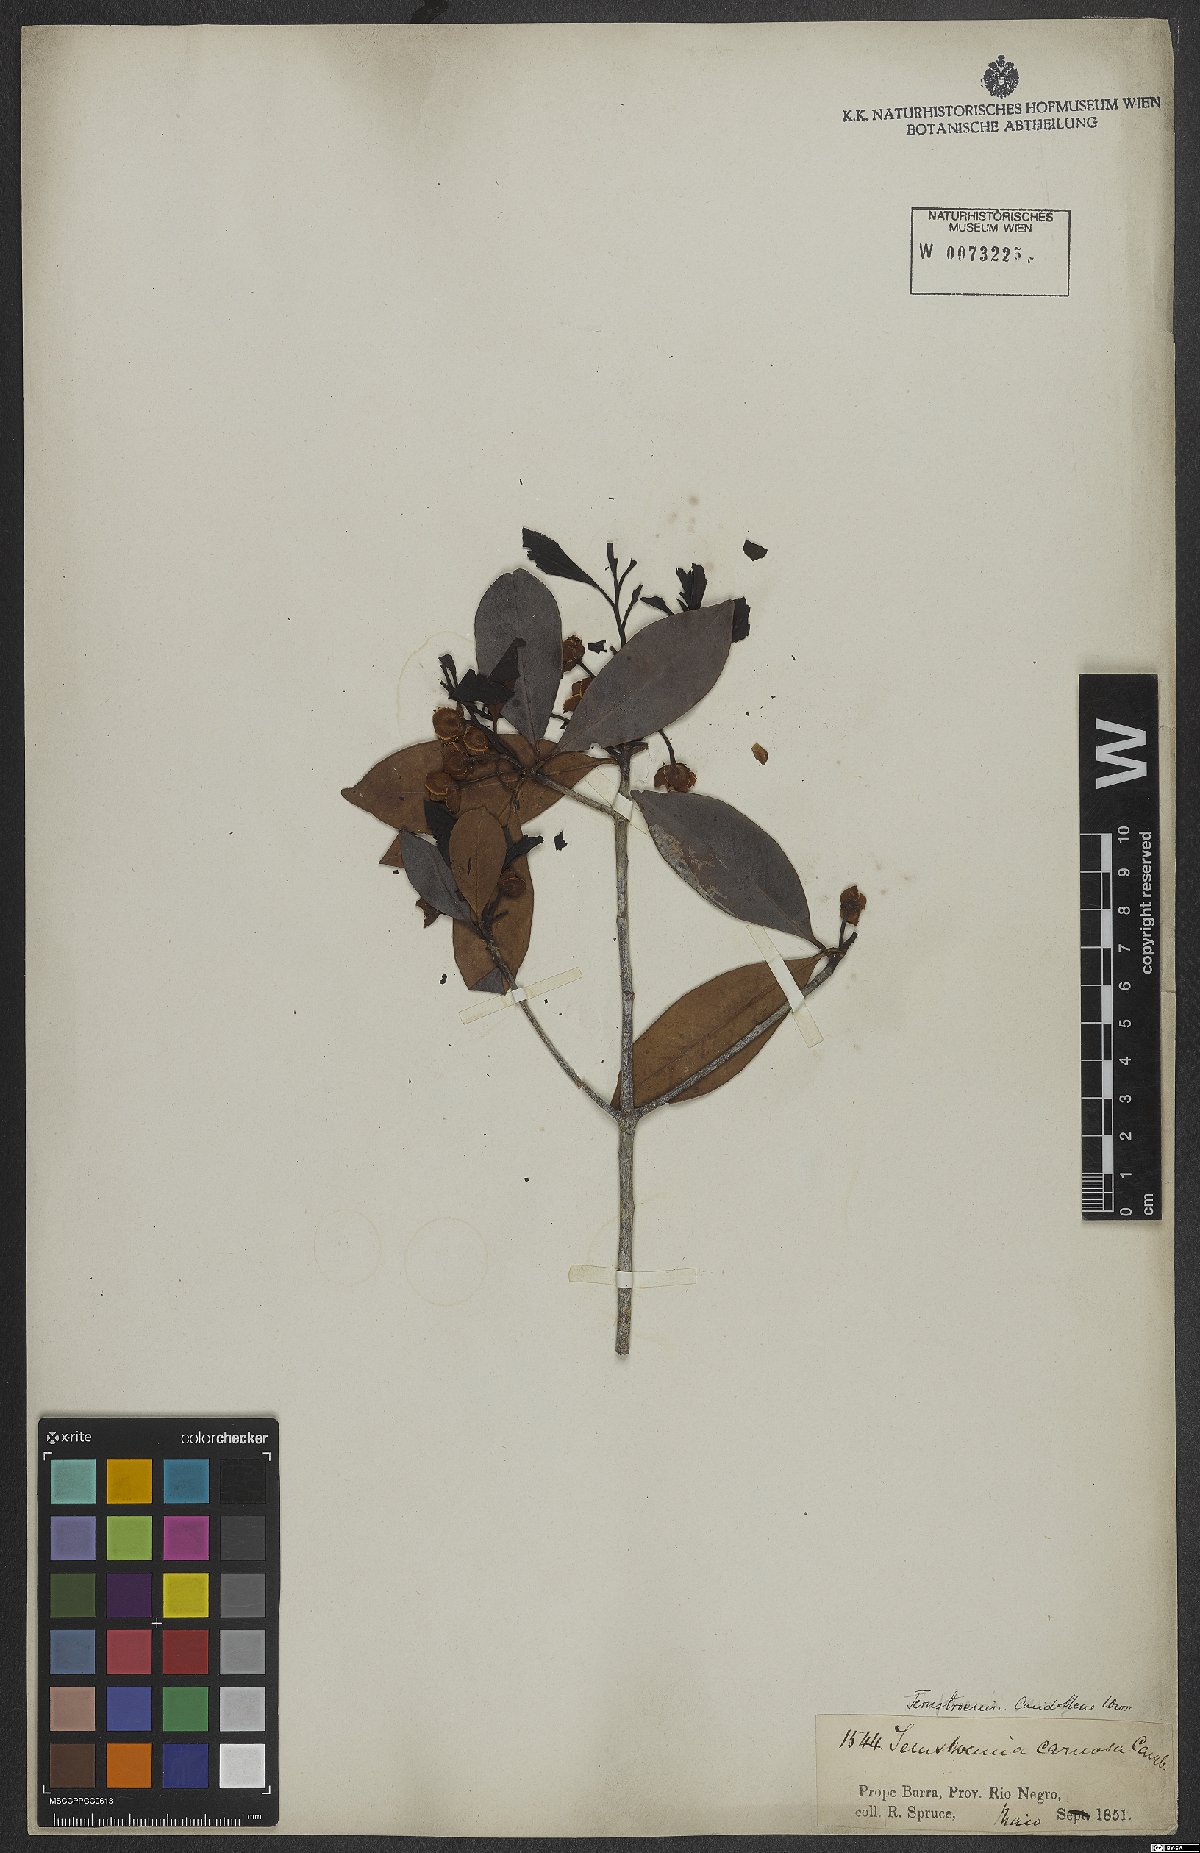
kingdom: Plantae
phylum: Tracheophyta
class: Magnoliopsida
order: Ericales
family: Pentaphylacaceae
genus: Ternstroemia
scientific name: Ternstroemia candolleana
